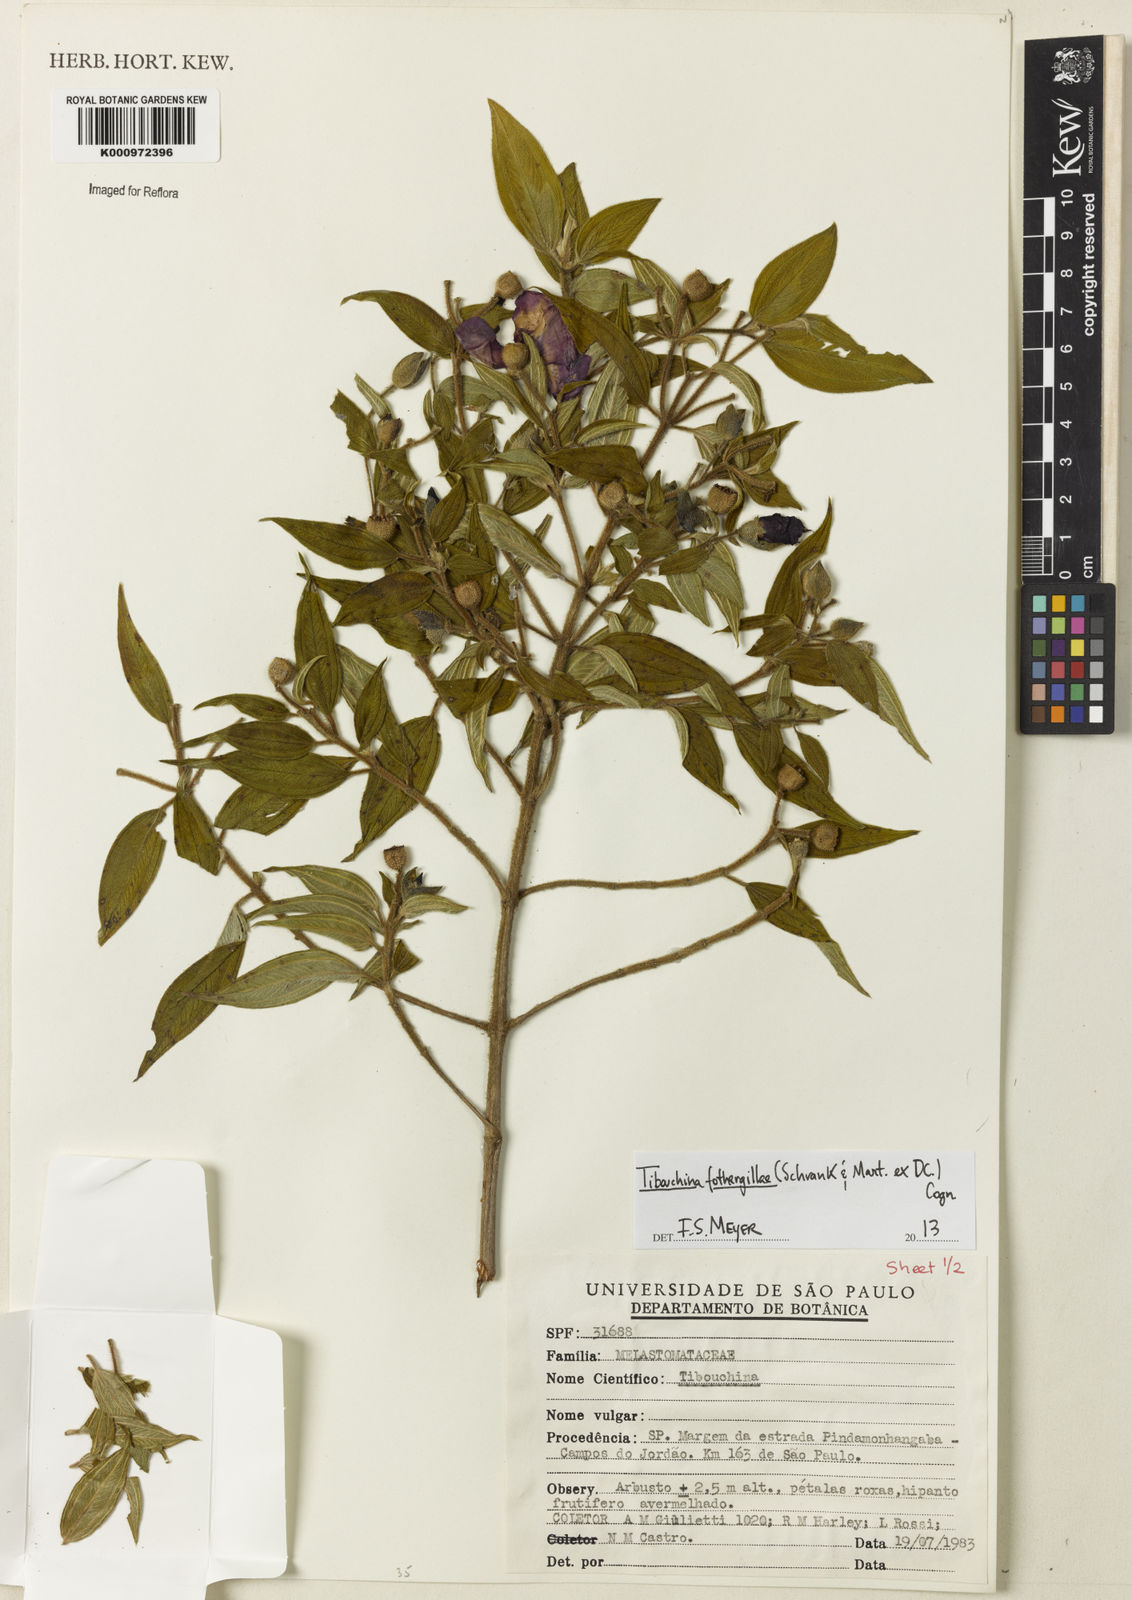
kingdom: Plantae
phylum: Tracheophyta
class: Magnoliopsida
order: Myrtales
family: Melastomataceae
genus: Pleroma
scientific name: Pleroma fothergillae
